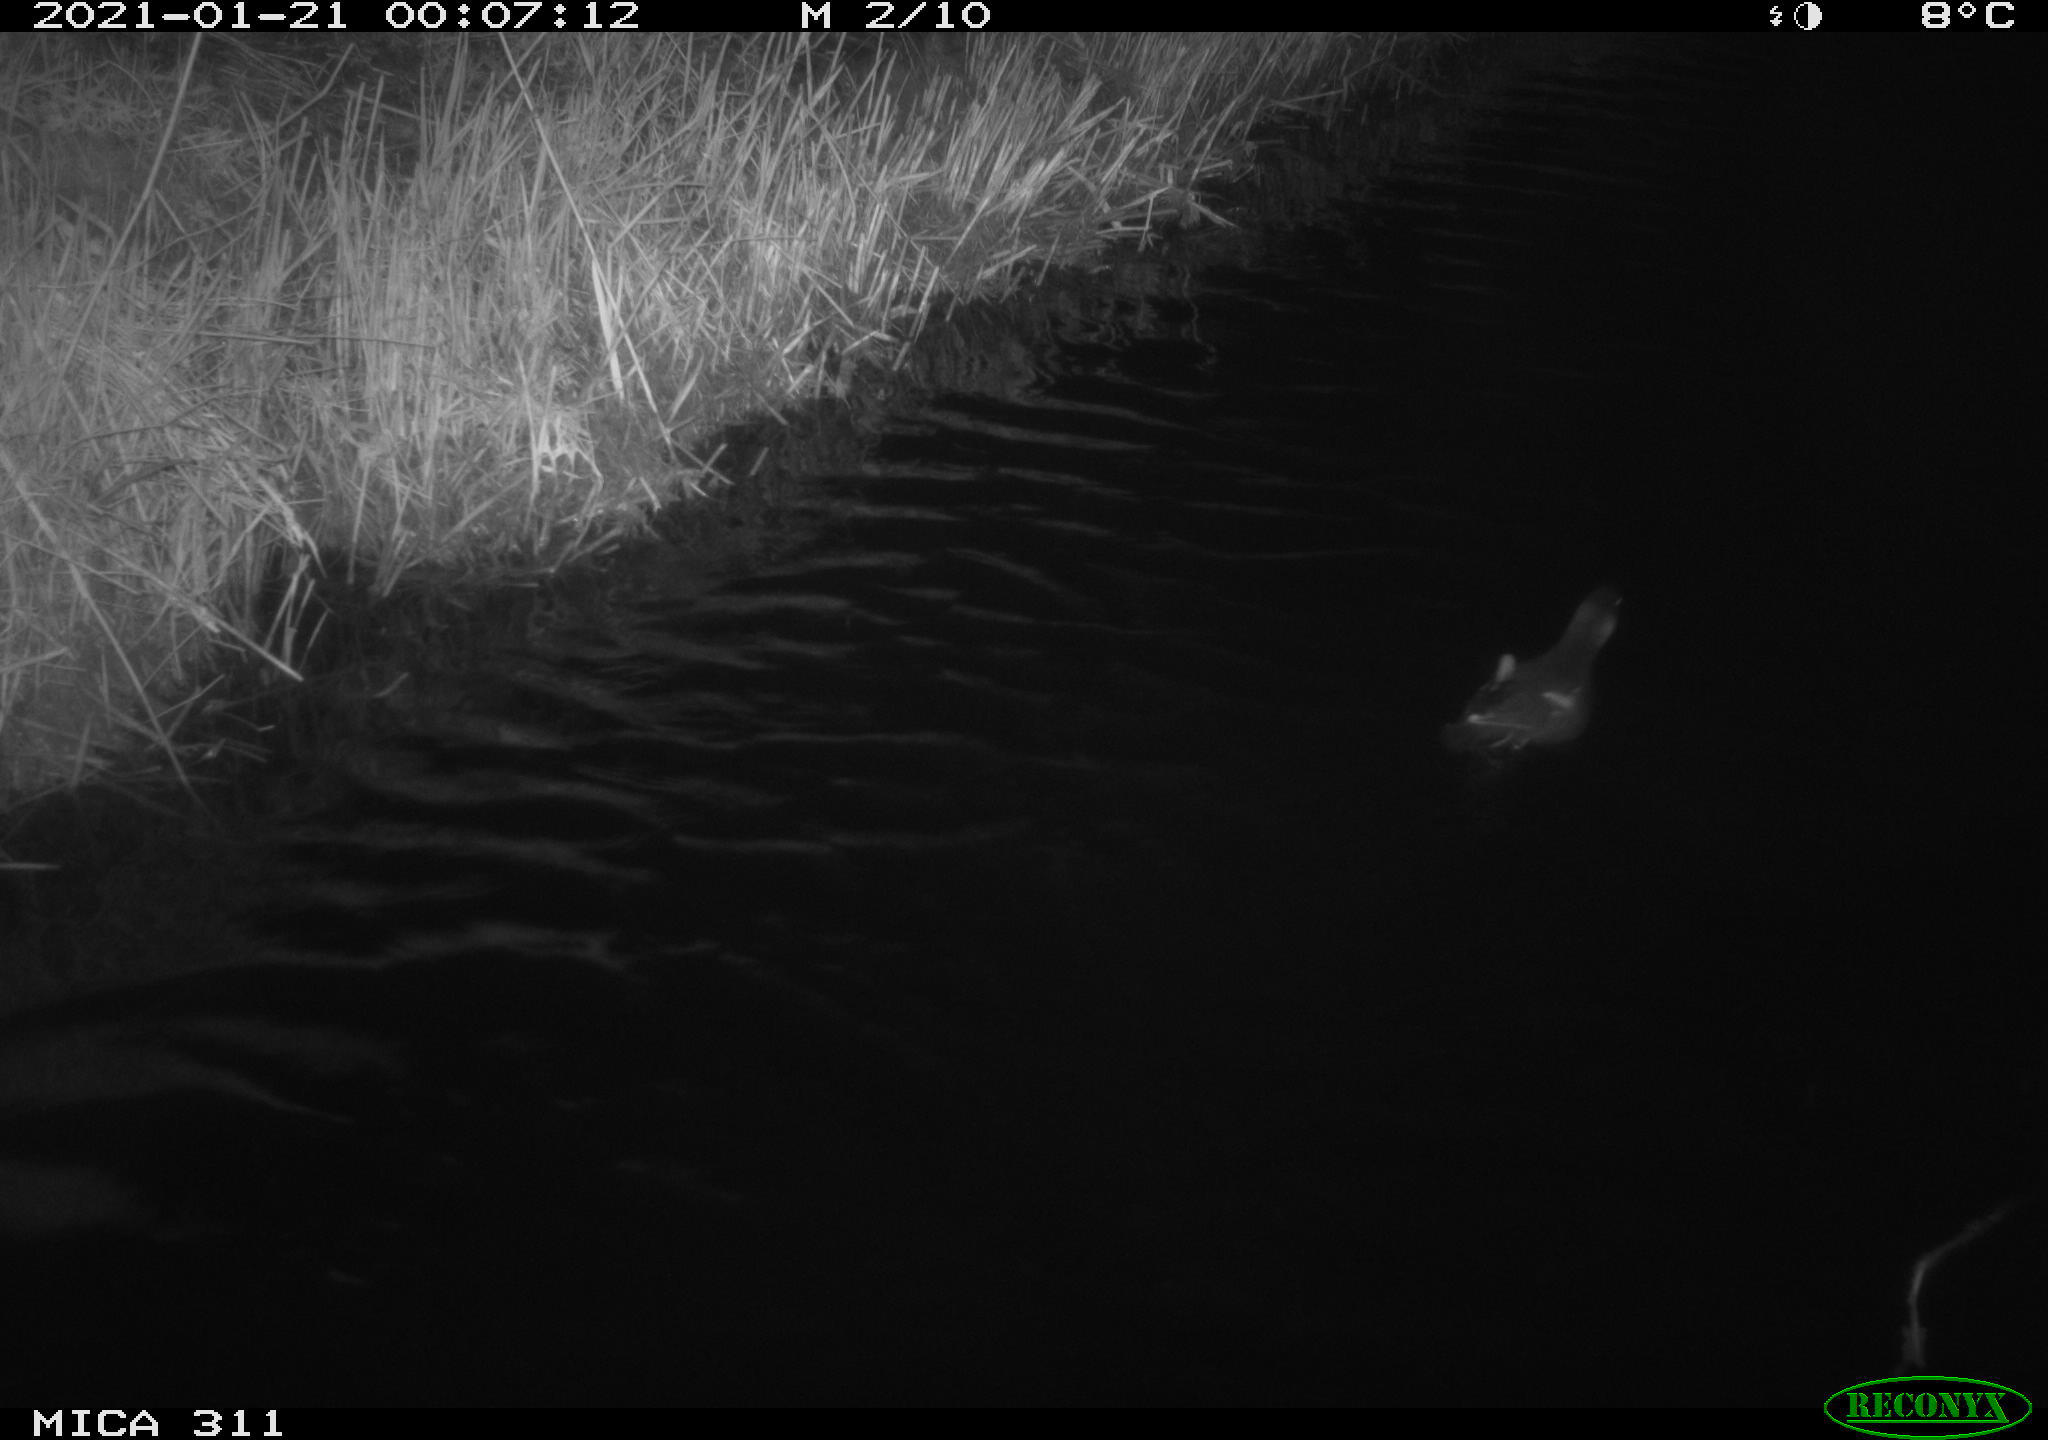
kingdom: Animalia
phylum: Chordata
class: Aves
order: Gruiformes
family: Rallidae
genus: Gallinula
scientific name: Gallinula chloropus
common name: Common moorhen
